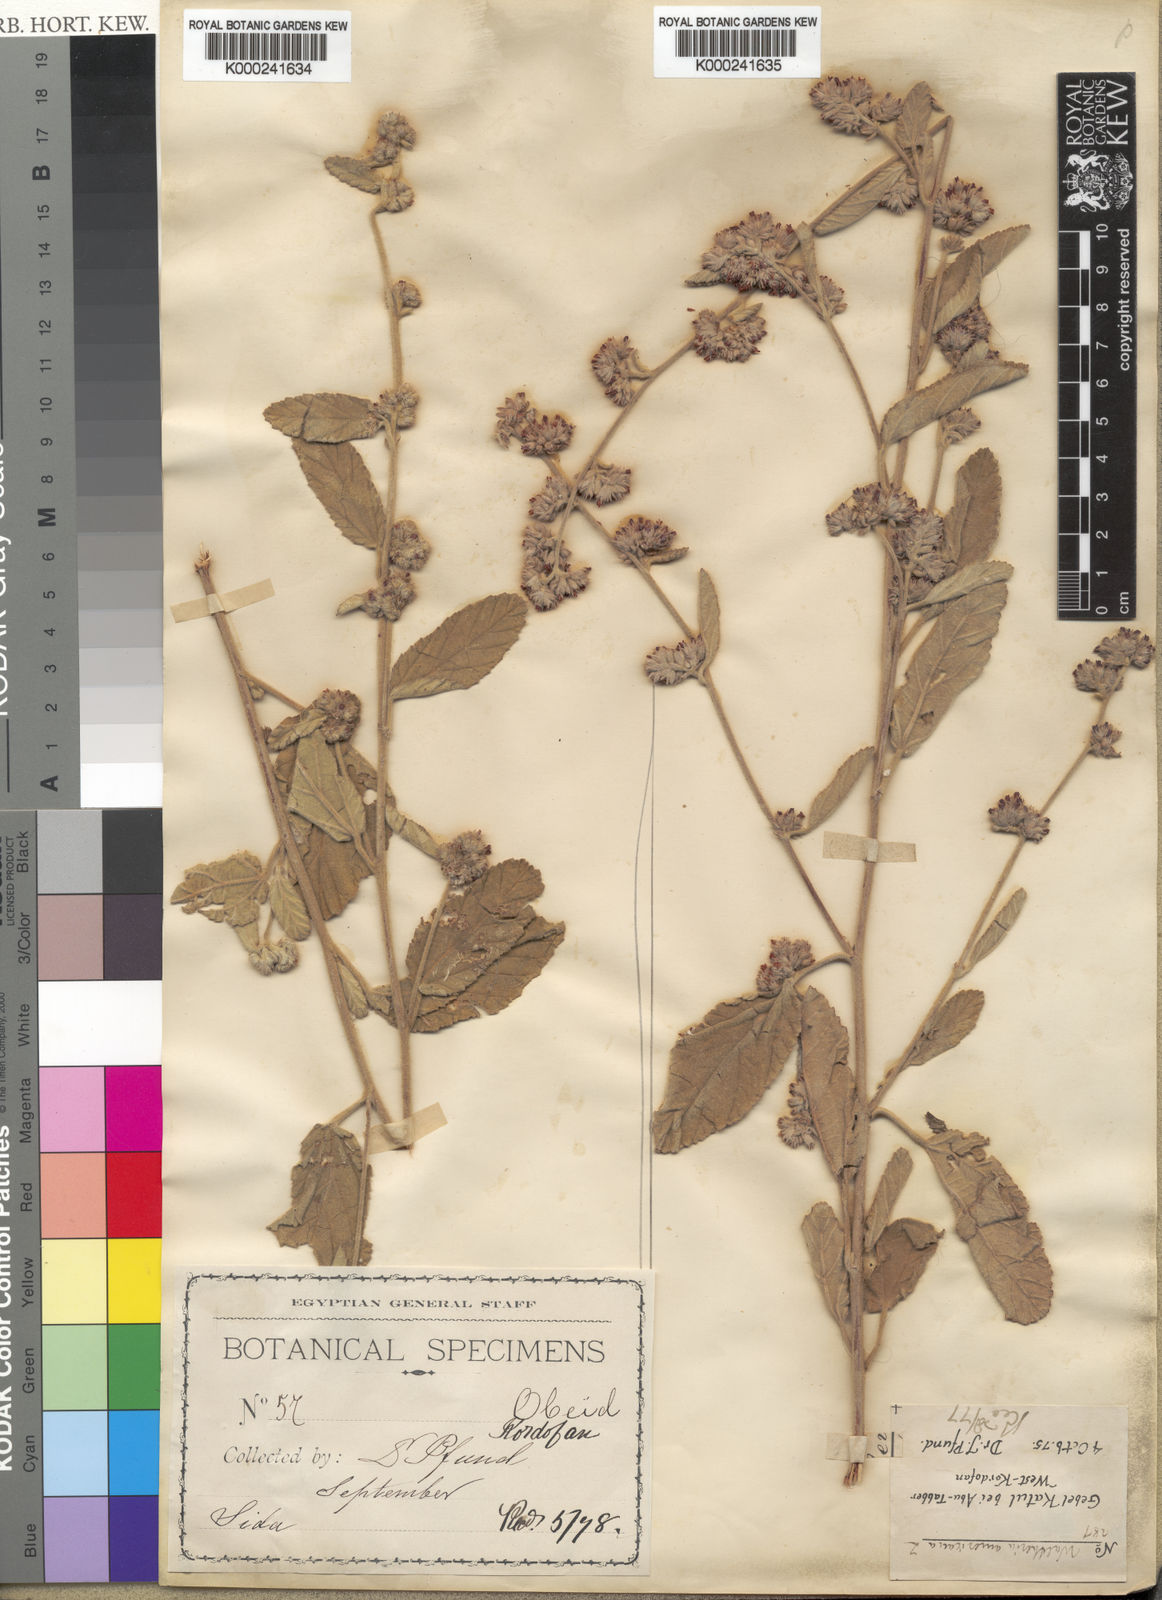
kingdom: Plantae
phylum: Tracheophyta
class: Magnoliopsida
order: Malvales
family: Malvaceae
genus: Waltheria
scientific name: Waltheria indica
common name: Leather-coat
